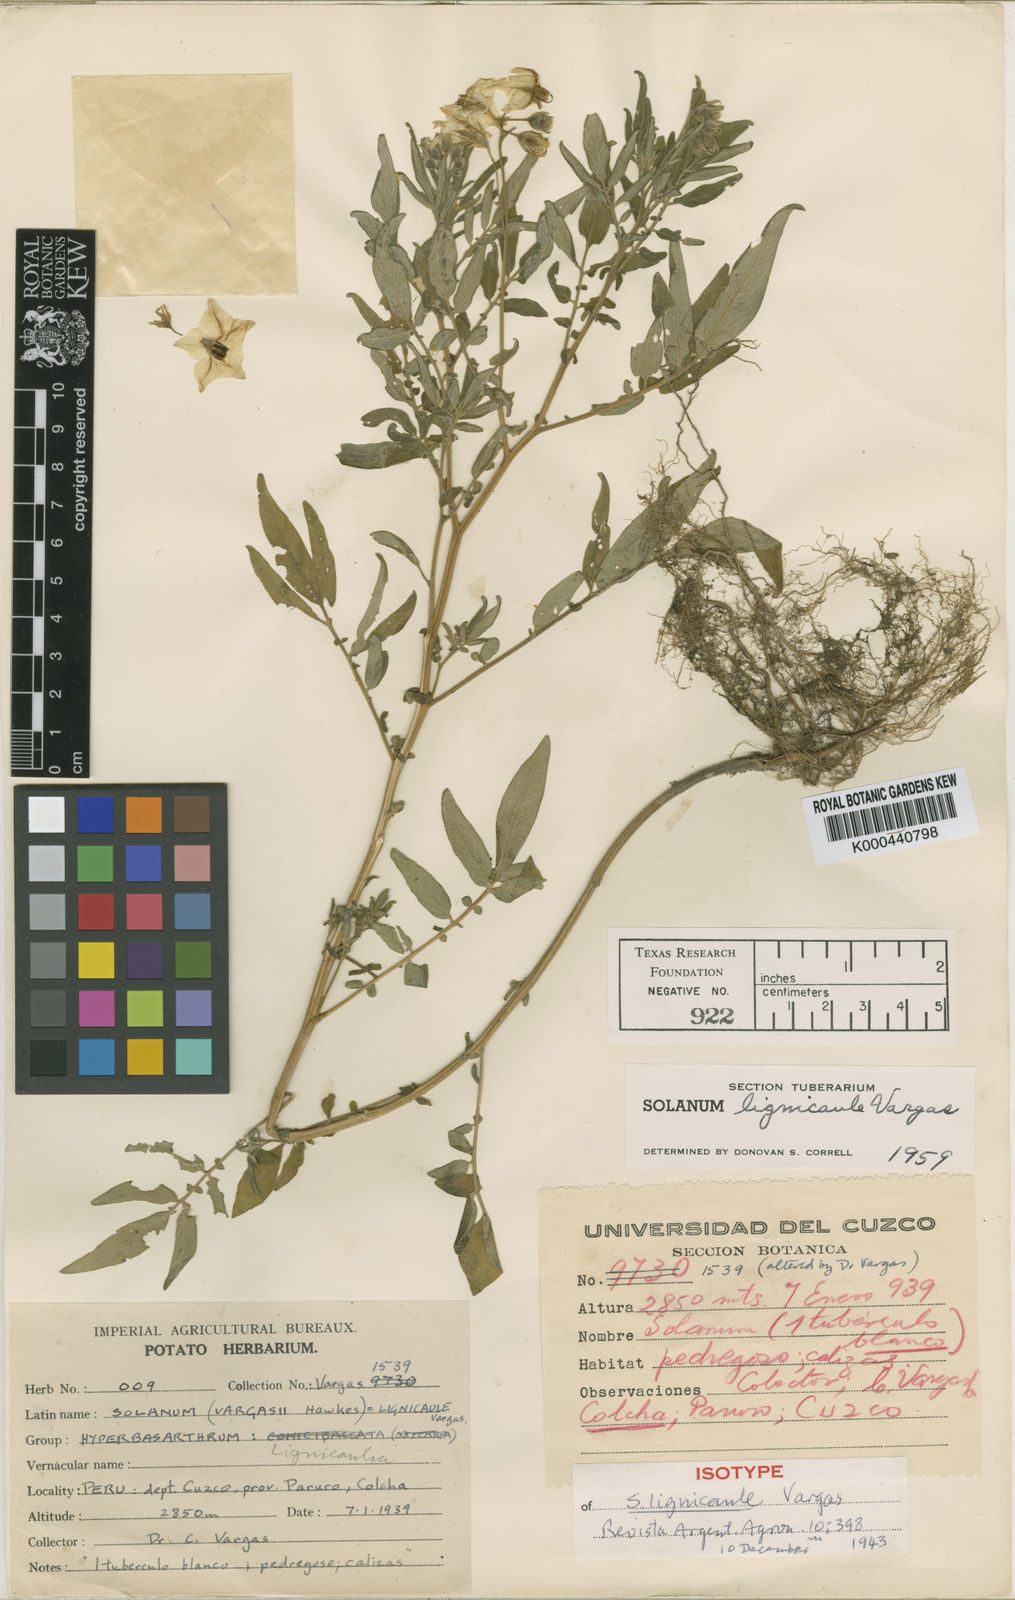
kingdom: Plantae
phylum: Tracheophyta
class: Magnoliopsida
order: Solanales
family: Solanaceae
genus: Solanum
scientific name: Solanum lignicaule
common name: Fox potato
